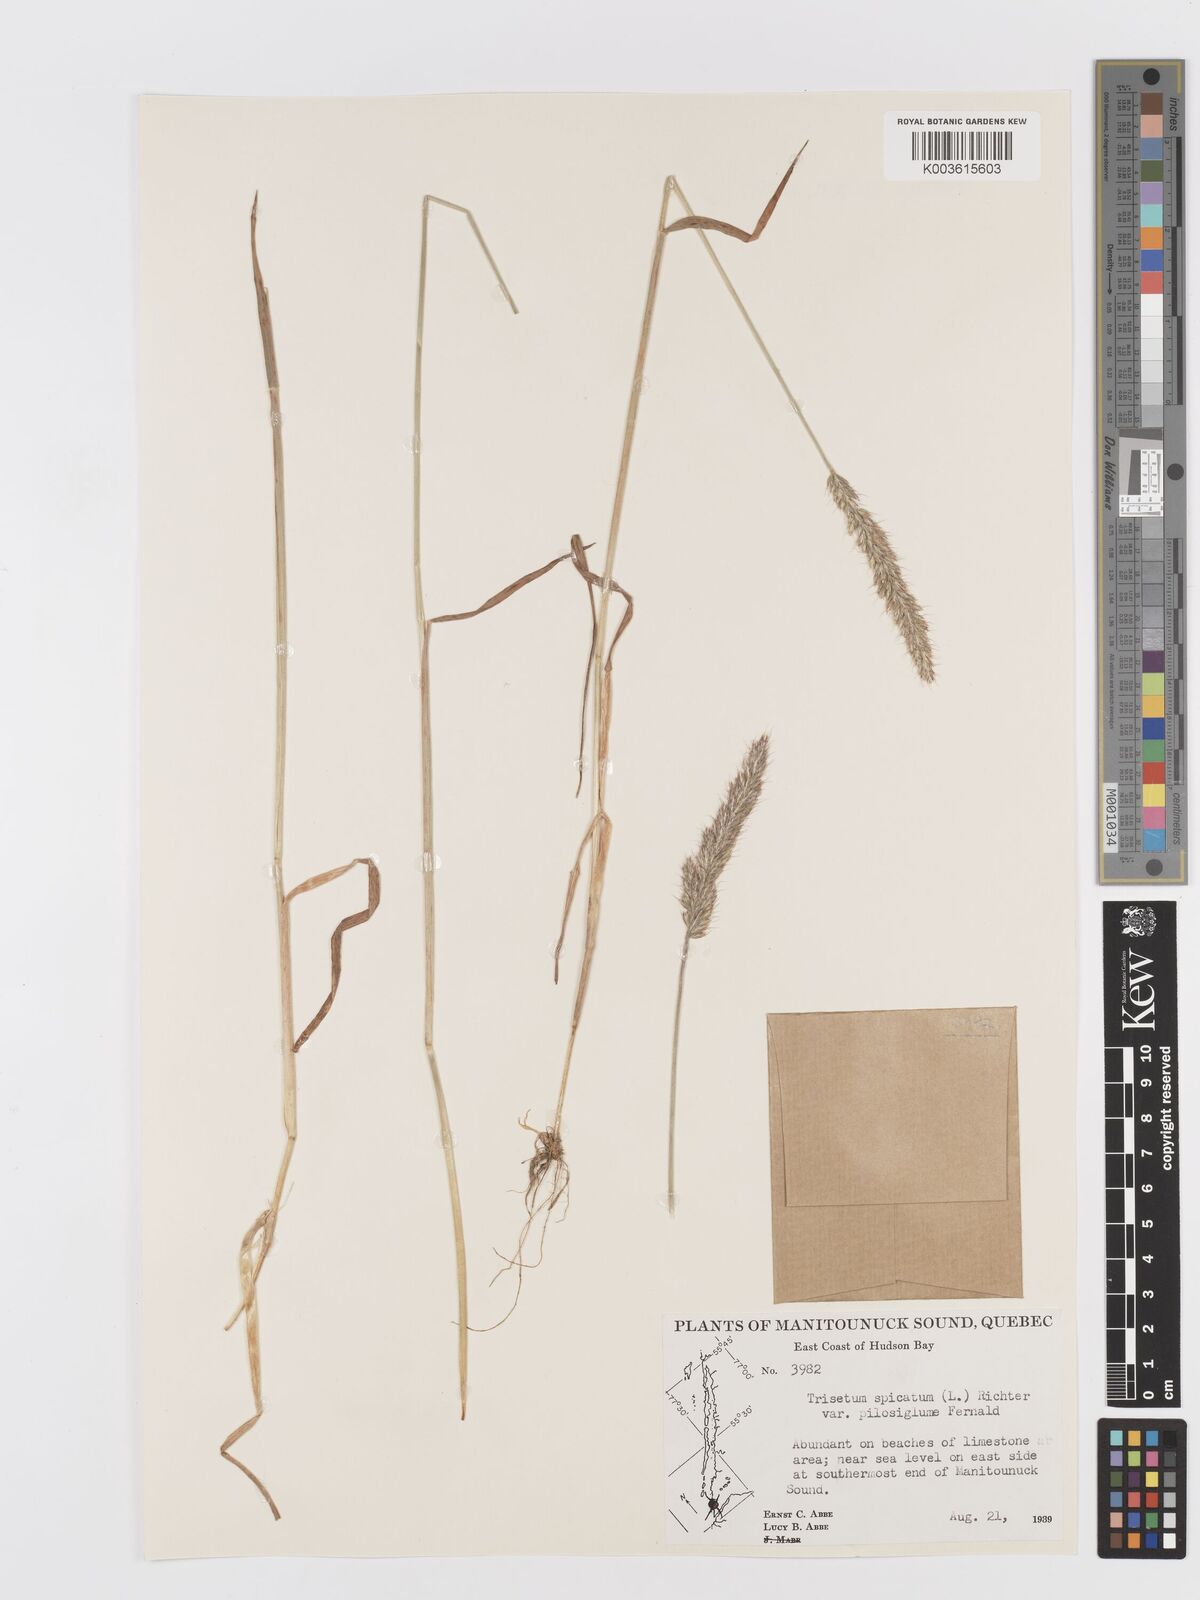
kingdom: Plantae
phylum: Tracheophyta
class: Liliopsida
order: Poales
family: Poaceae
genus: Koeleria
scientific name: Koeleria spicata
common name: Mountain trisetum
